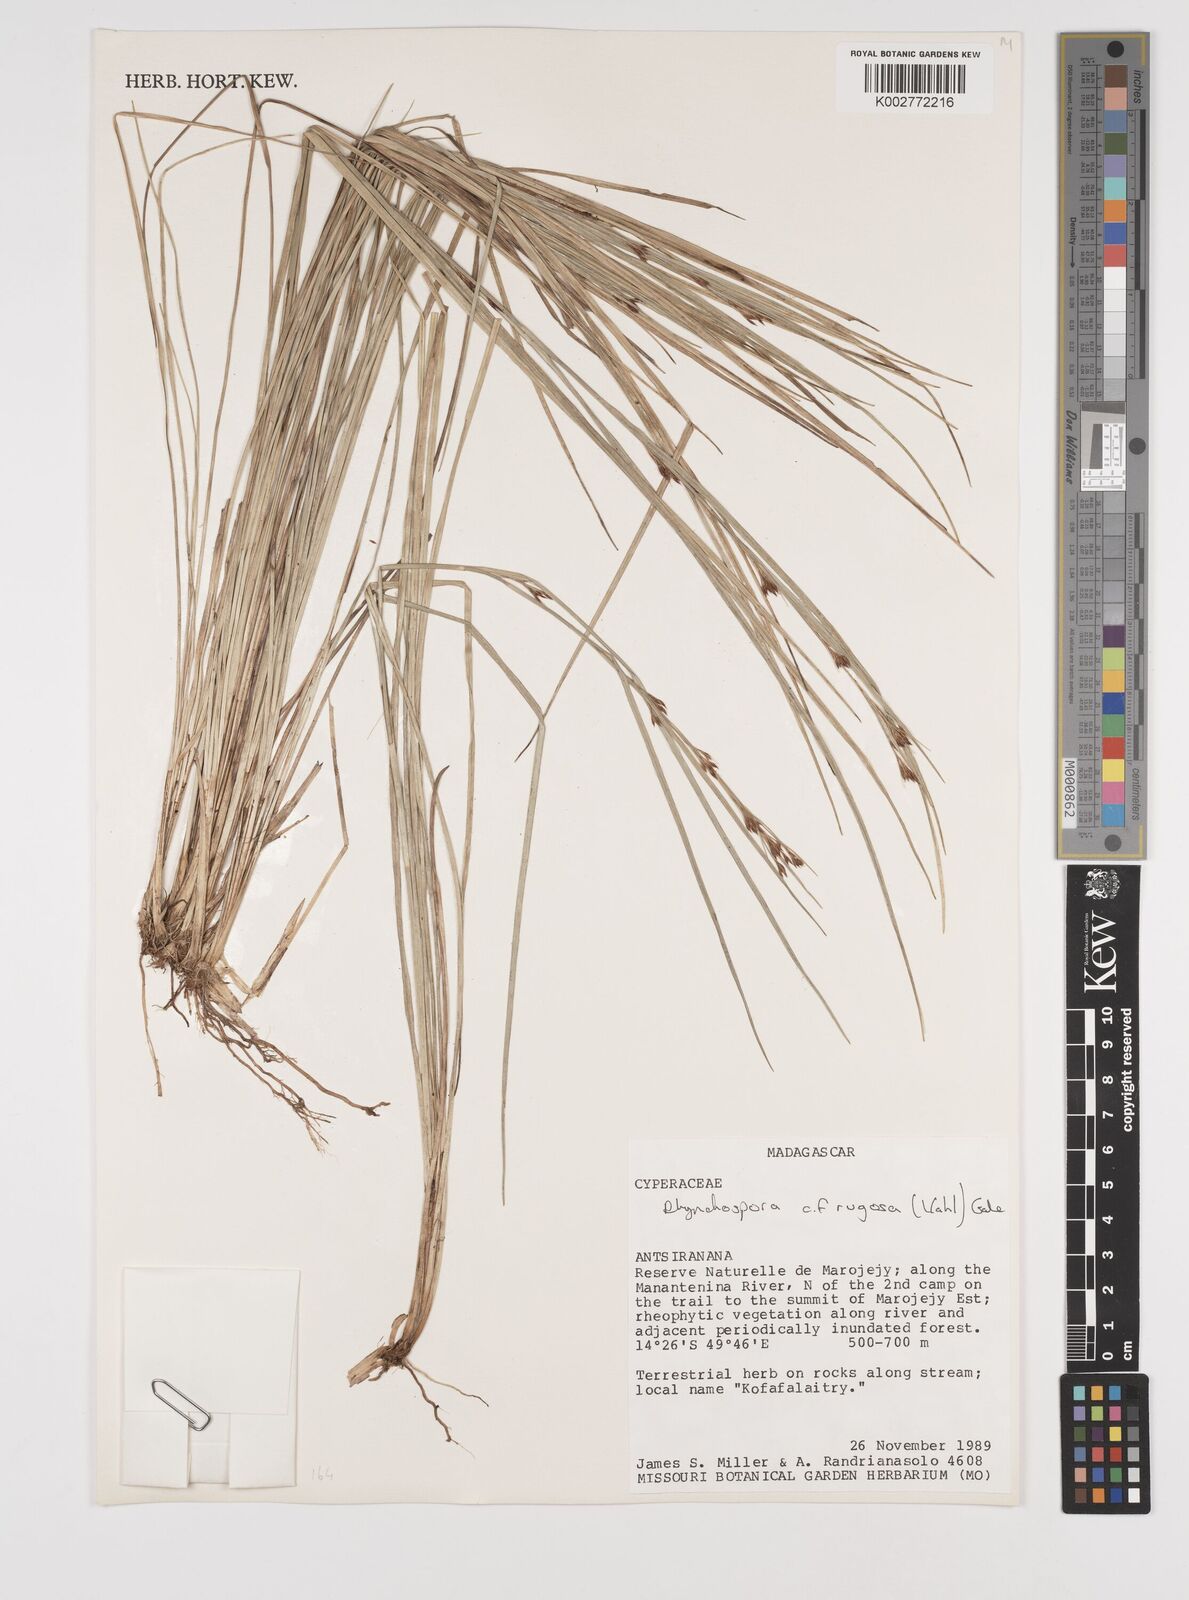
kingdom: Plantae
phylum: Tracheophyta
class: Liliopsida
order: Poales
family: Cyperaceae
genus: Rhynchospora
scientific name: Rhynchospora rugosa
